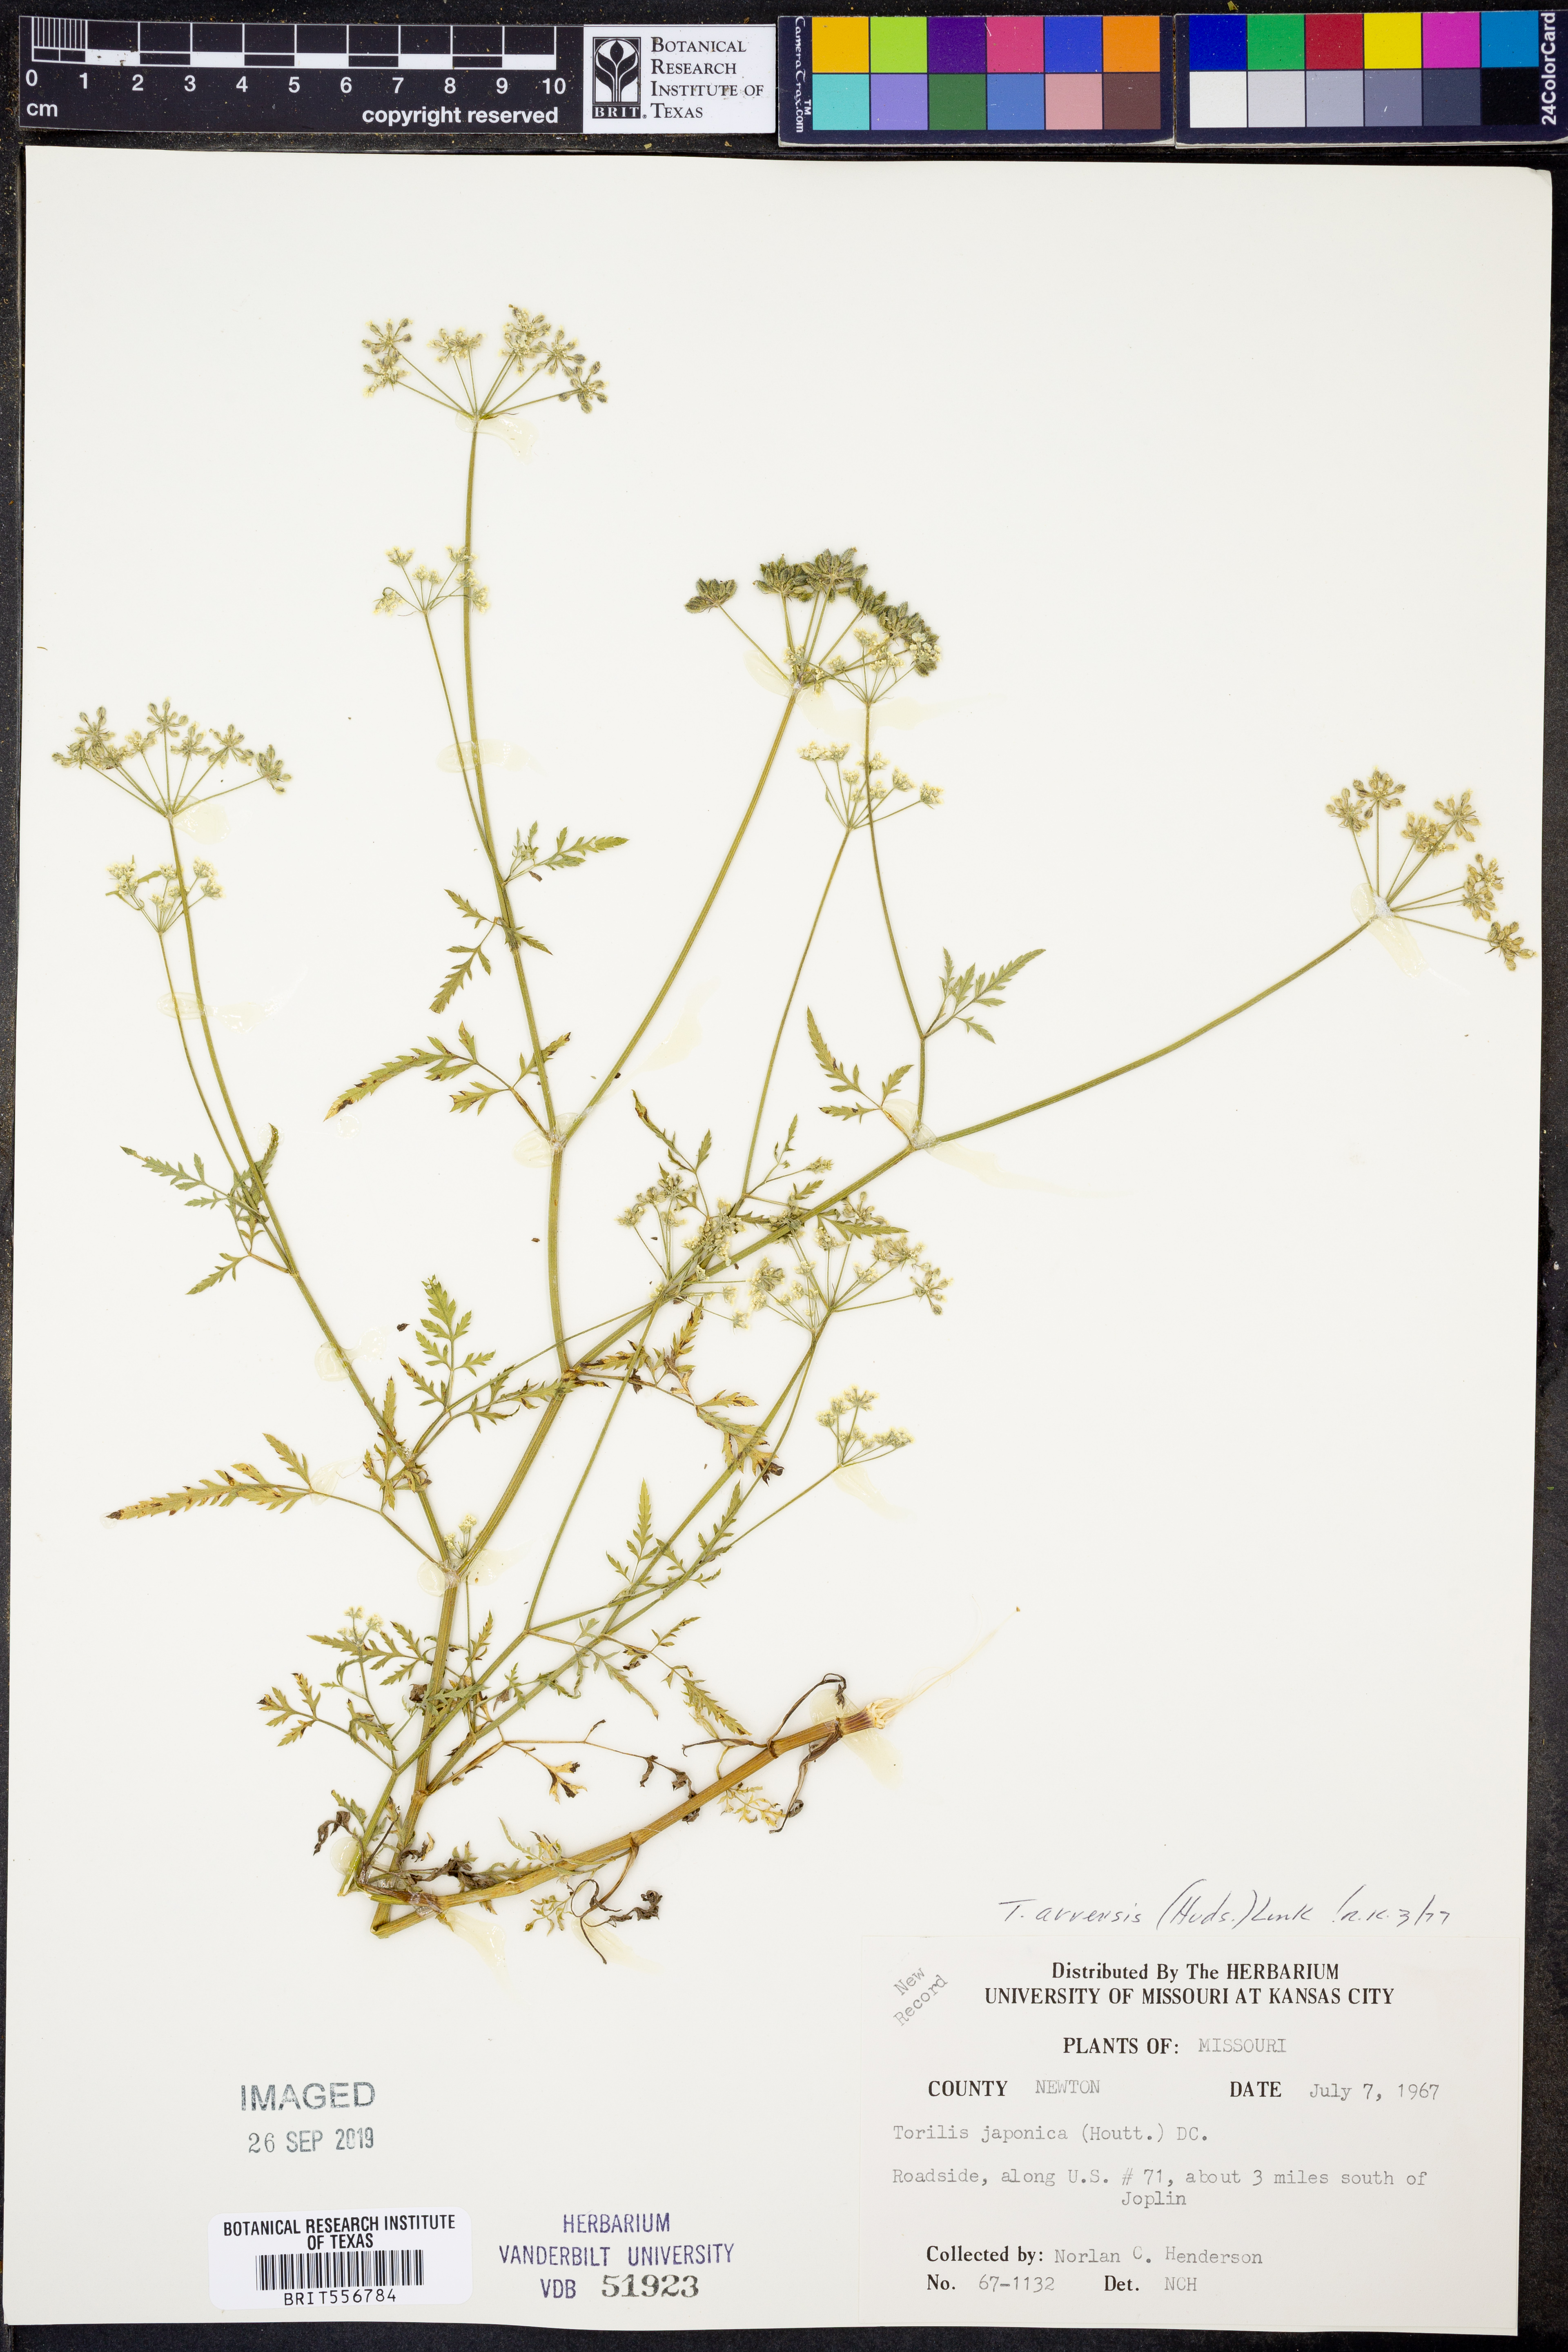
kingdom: Plantae
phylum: Tracheophyta
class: Magnoliopsida
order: Apiales
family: Apiaceae
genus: Torilis
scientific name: Torilis arvensis
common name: Spreading hedge-parsley
